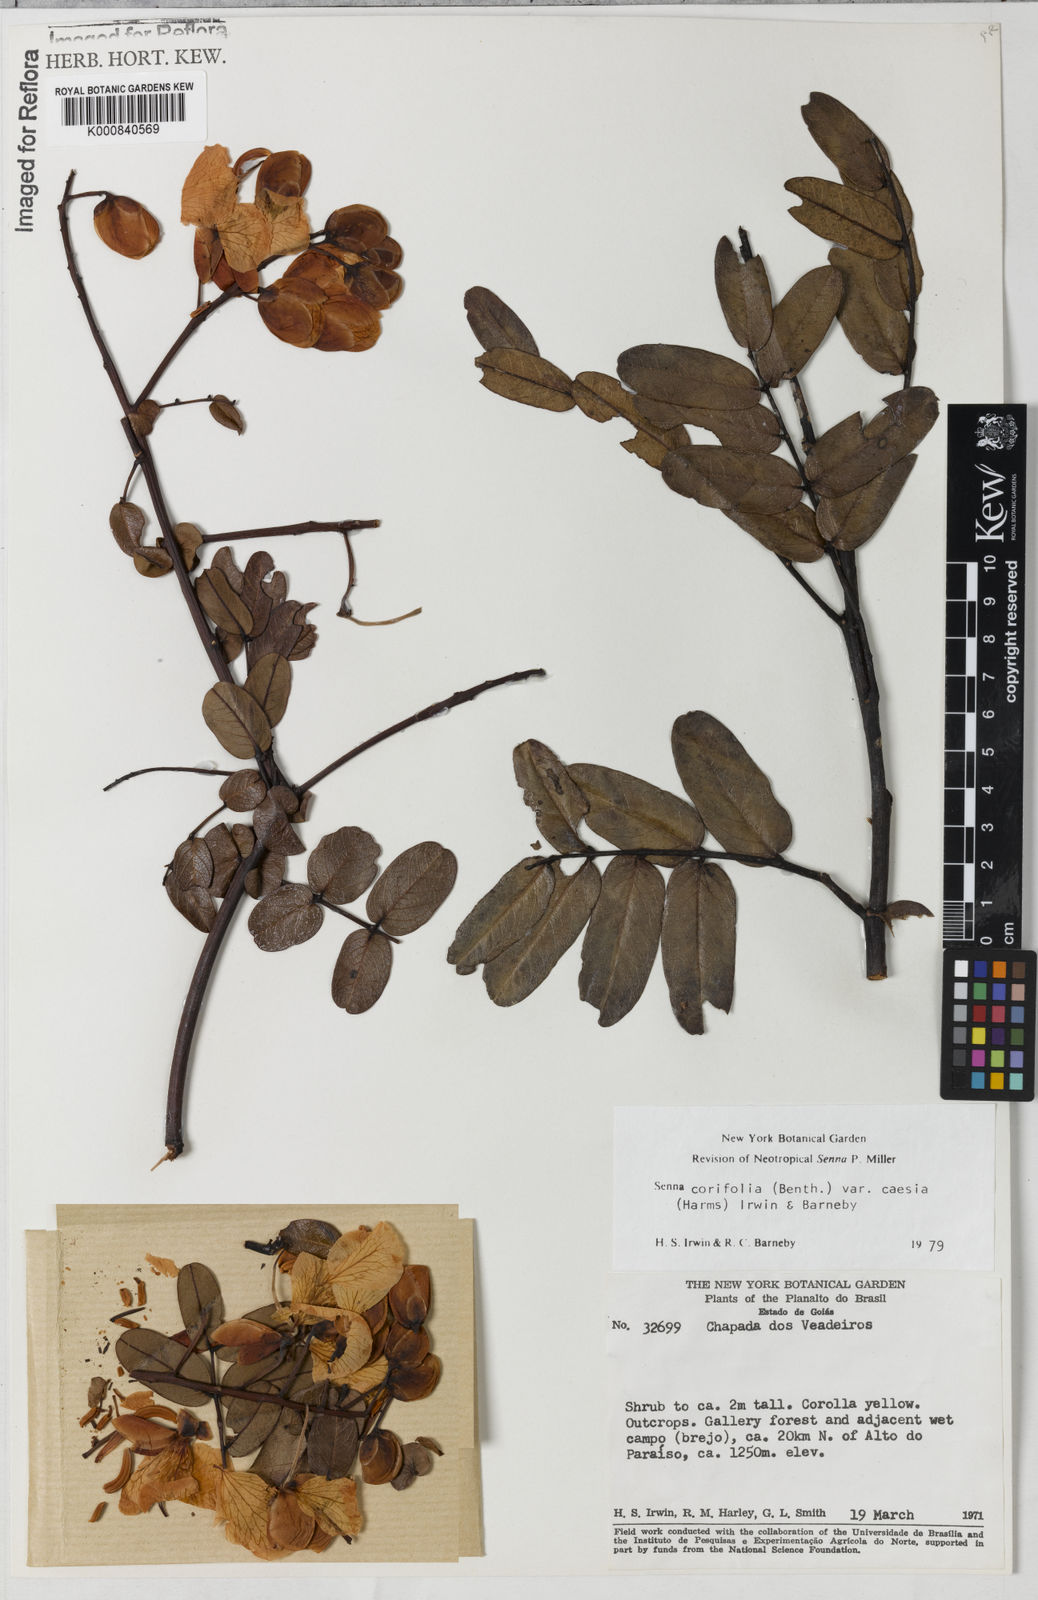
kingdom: Plantae
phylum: Tracheophyta
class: Magnoliopsida
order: Fabales
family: Fabaceae
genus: Senna
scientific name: Senna corifolia
